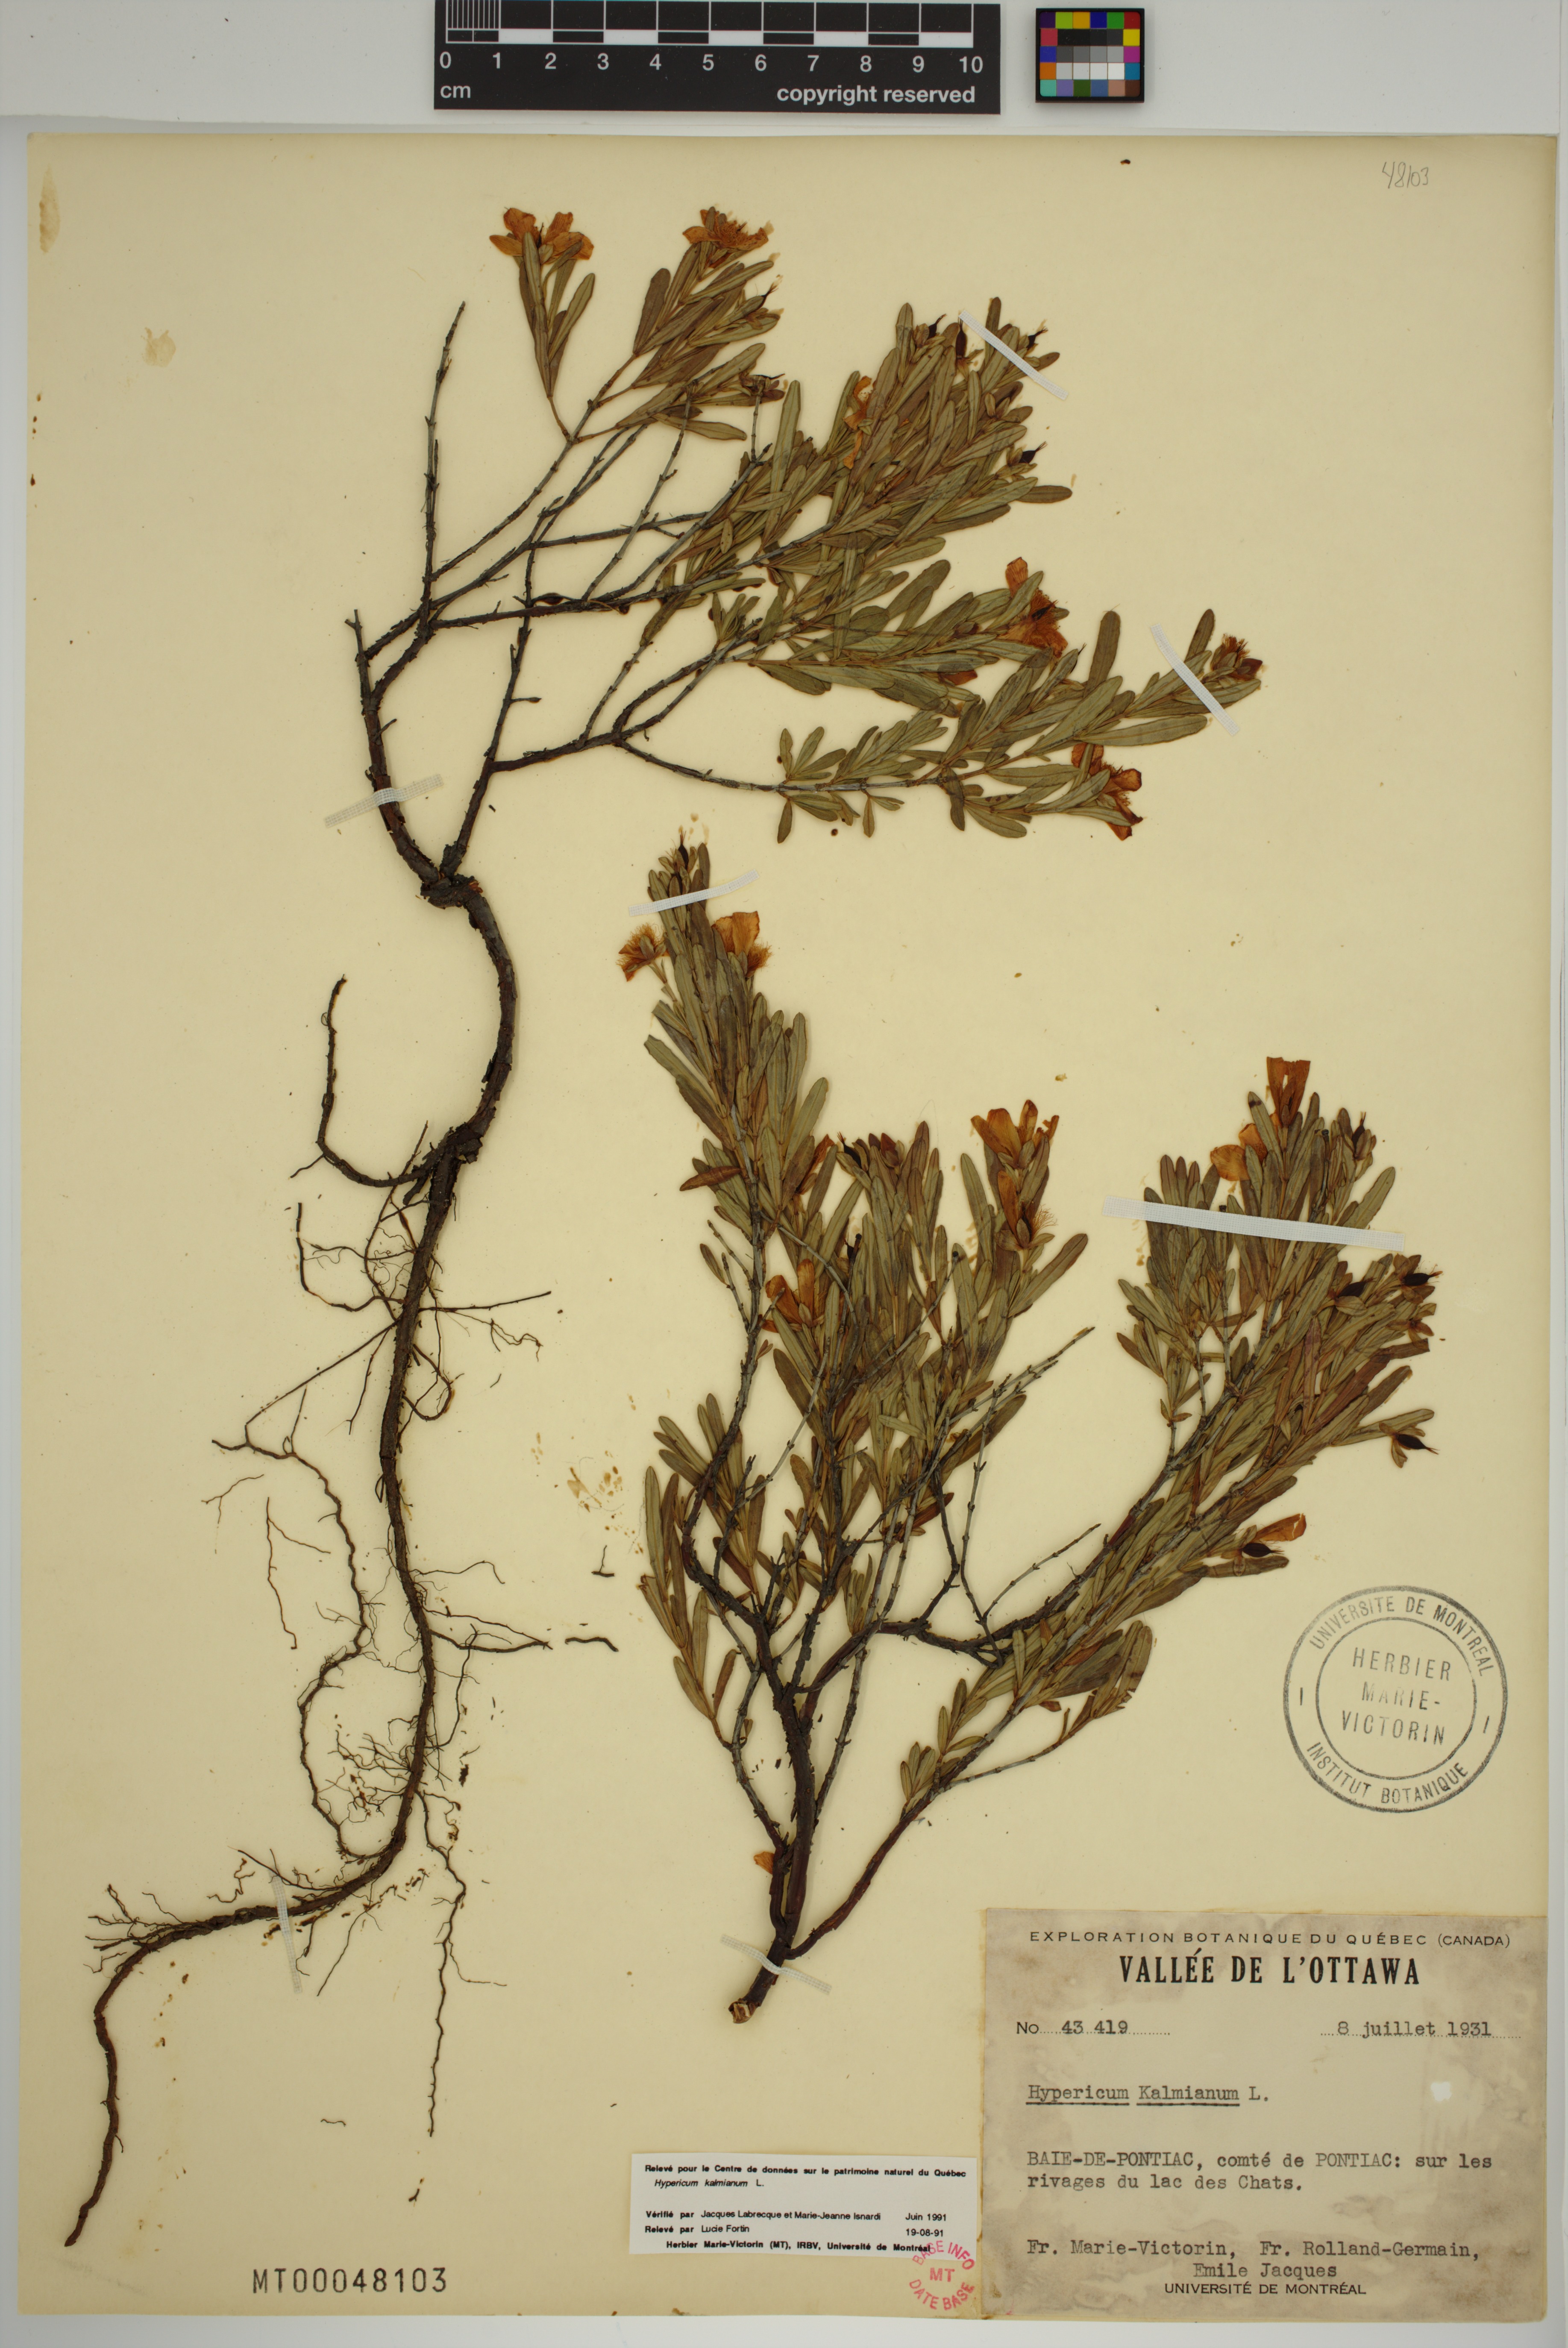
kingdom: Plantae
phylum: Tracheophyta
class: Magnoliopsida
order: Malpighiales
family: Hypericaceae
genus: Hypericum
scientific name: Hypericum kalmianum
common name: Kalm's st. john's-wort
